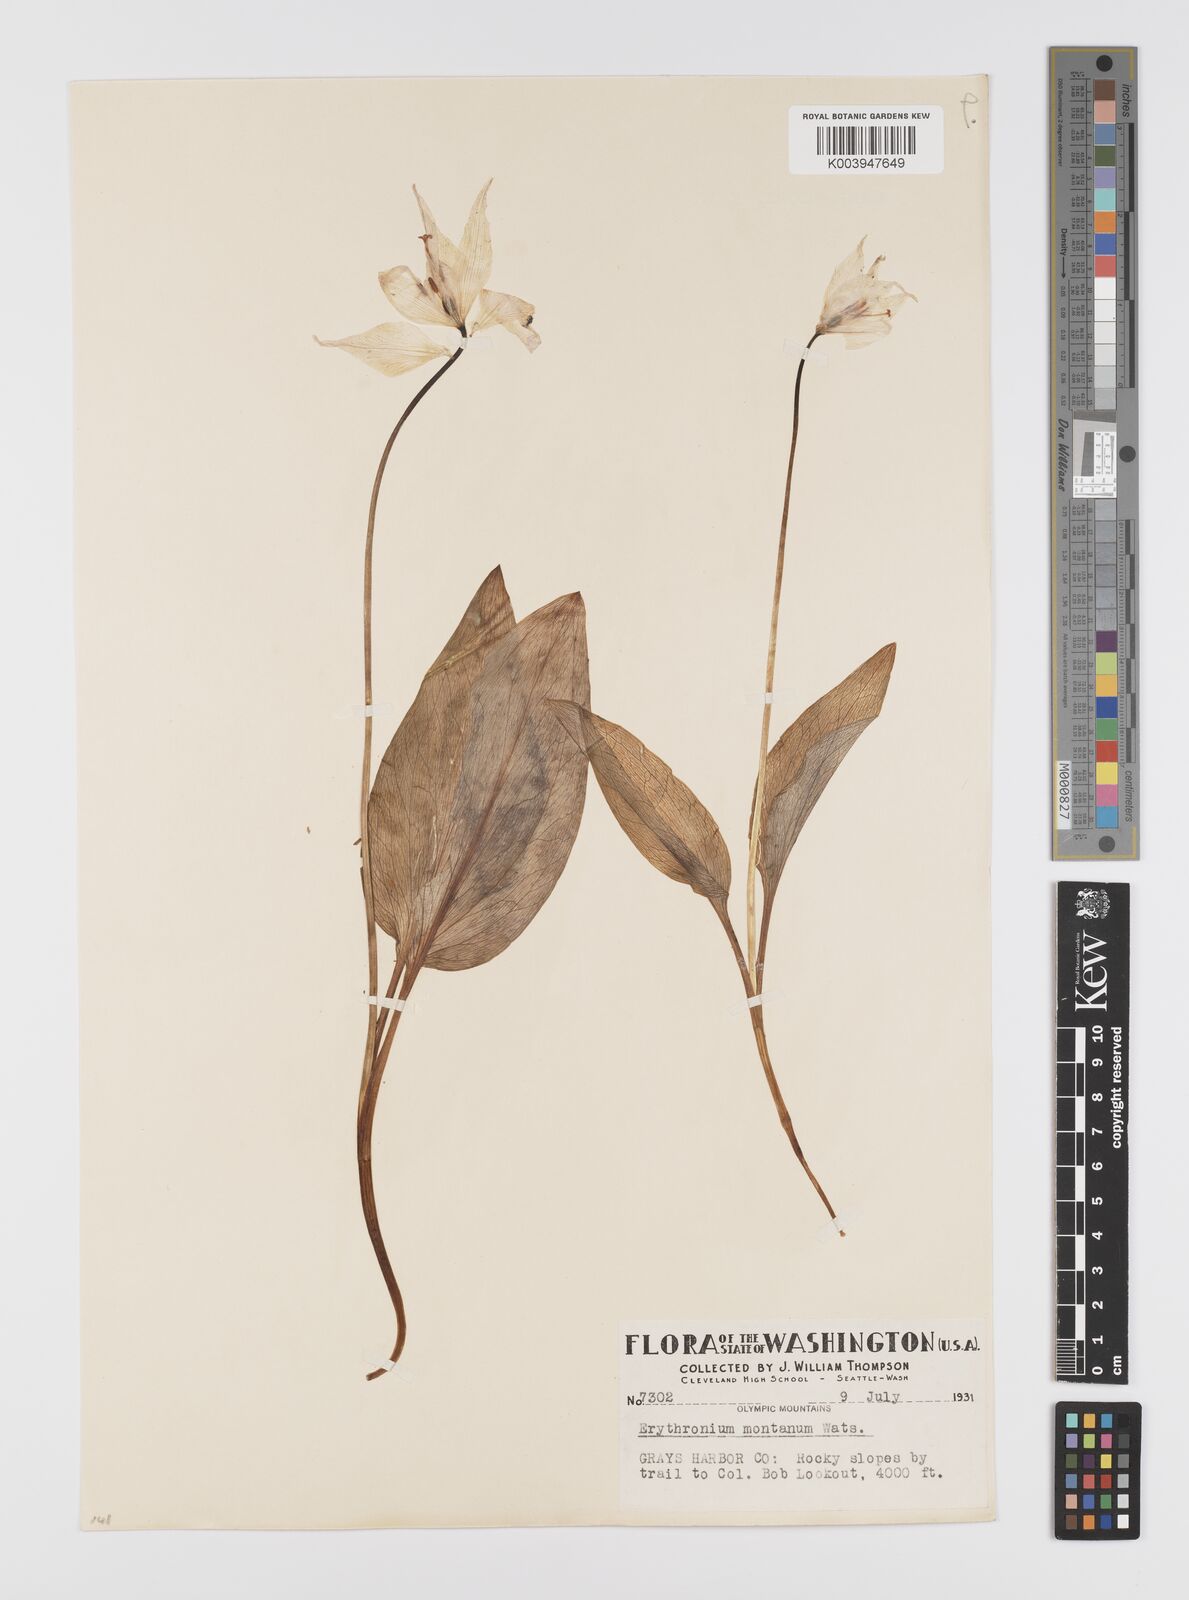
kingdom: Plantae
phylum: Tracheophyta
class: Liliopsida
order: Liliales
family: Liliaceae
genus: Erythronium
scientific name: Erythronium montanum
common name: Avalanche lily
